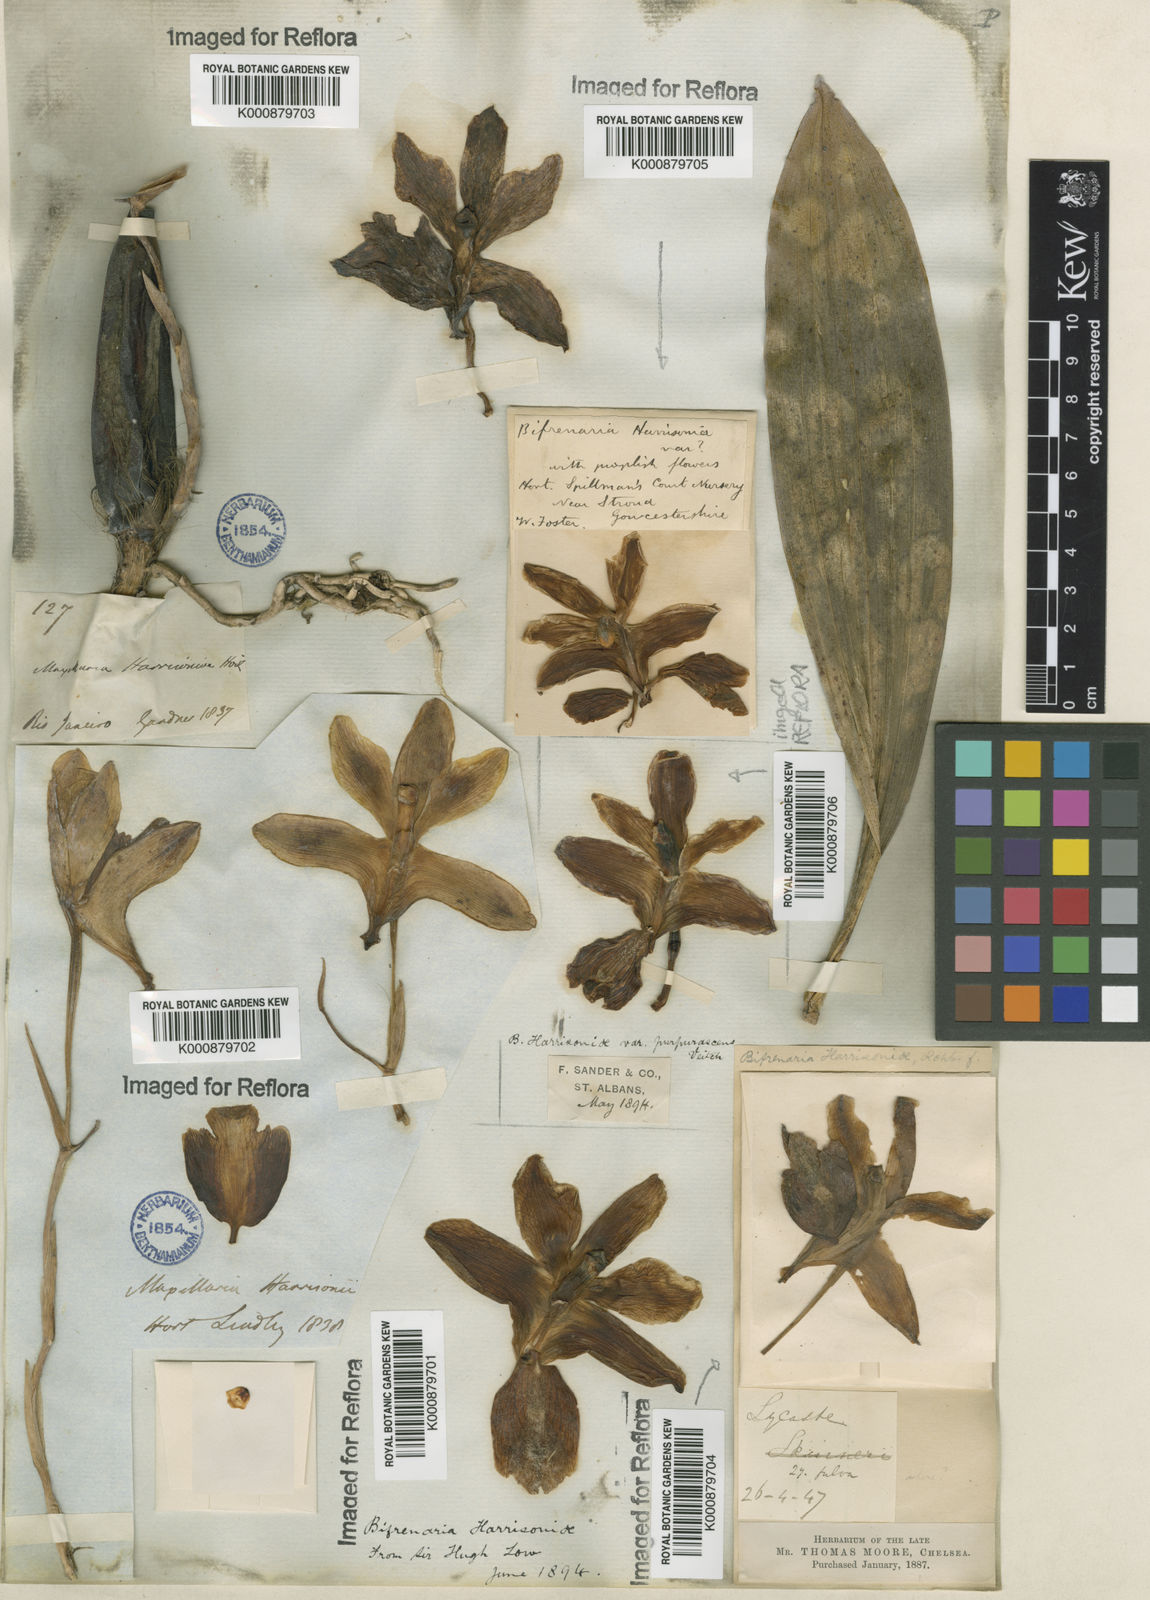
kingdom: Plantae
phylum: Tracheophyta
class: Liliopsida
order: Asparagales
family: Orchidaceae
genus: Bifrenaria
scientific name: Bifrenaria
